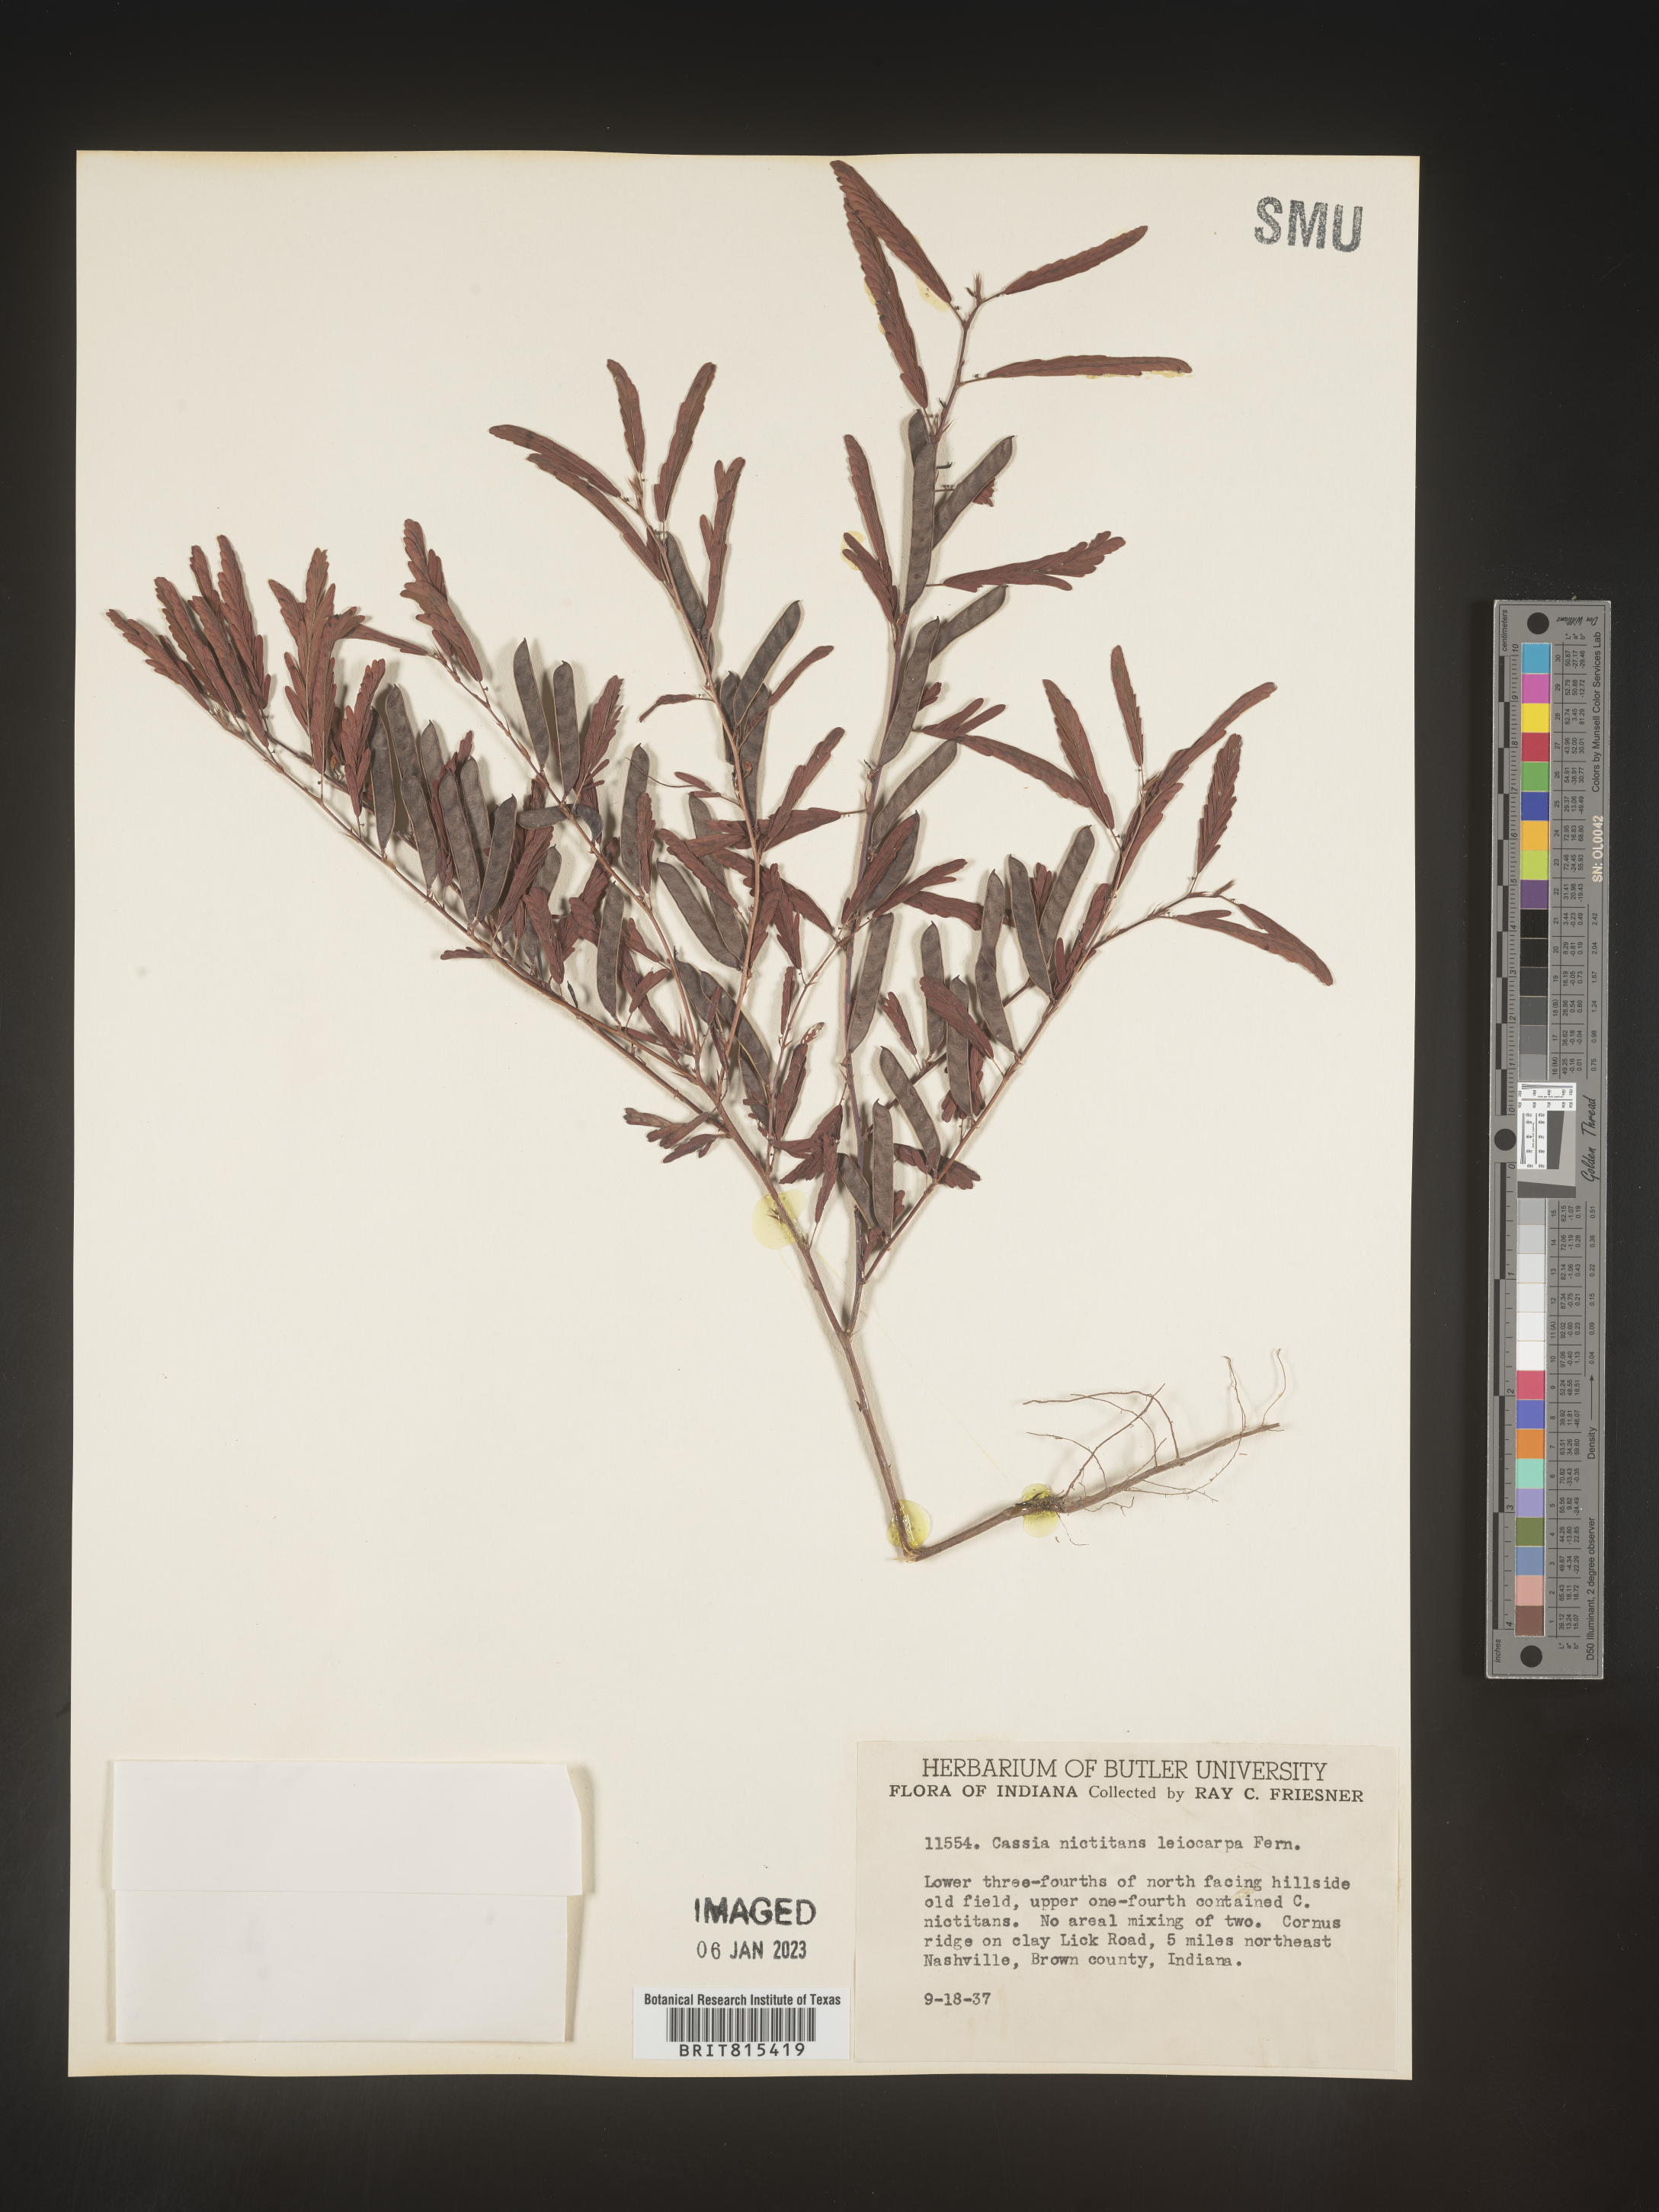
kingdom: Plantae
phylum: Tracheophyta
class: Magnoliopsida
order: Fabales
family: Fabaceae
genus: Chamaecrista
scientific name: Chamaecrista nictitans
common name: Sensitive cassia
